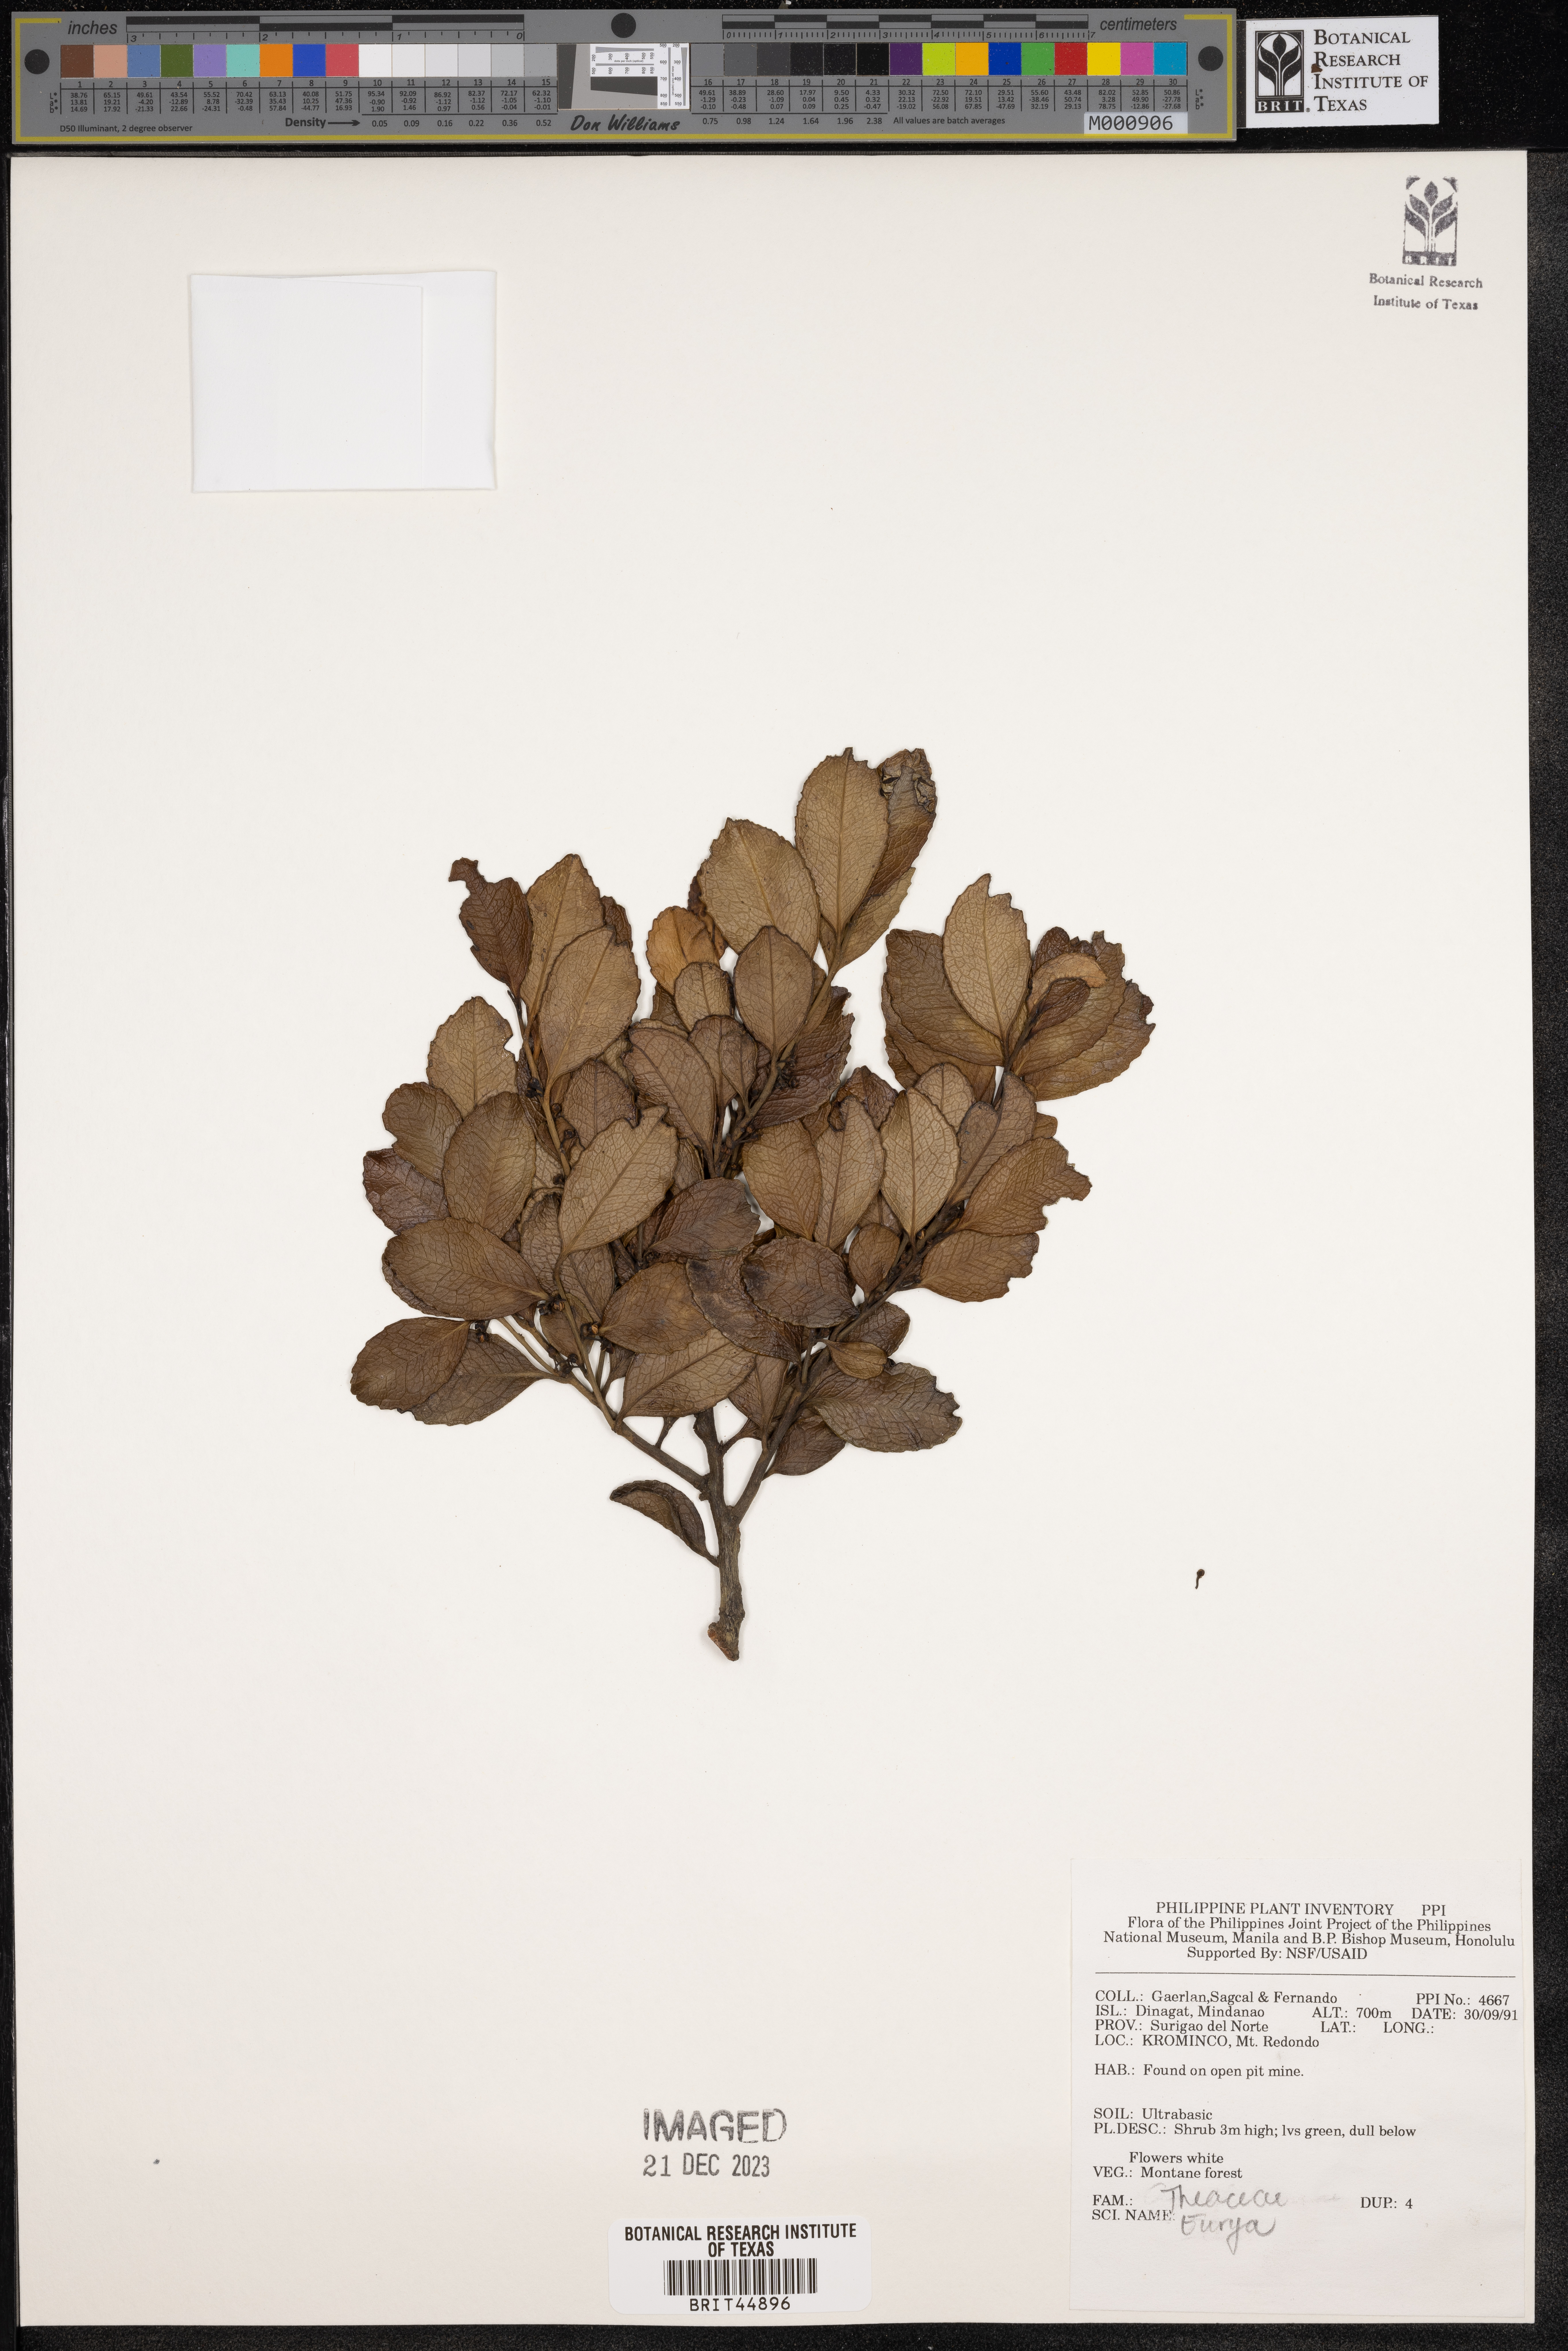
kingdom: Plantae
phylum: Tracheophyta
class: Magnoliopsida
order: Ericales
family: Pentaphylacaceae
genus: Eurya
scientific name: Eurya
